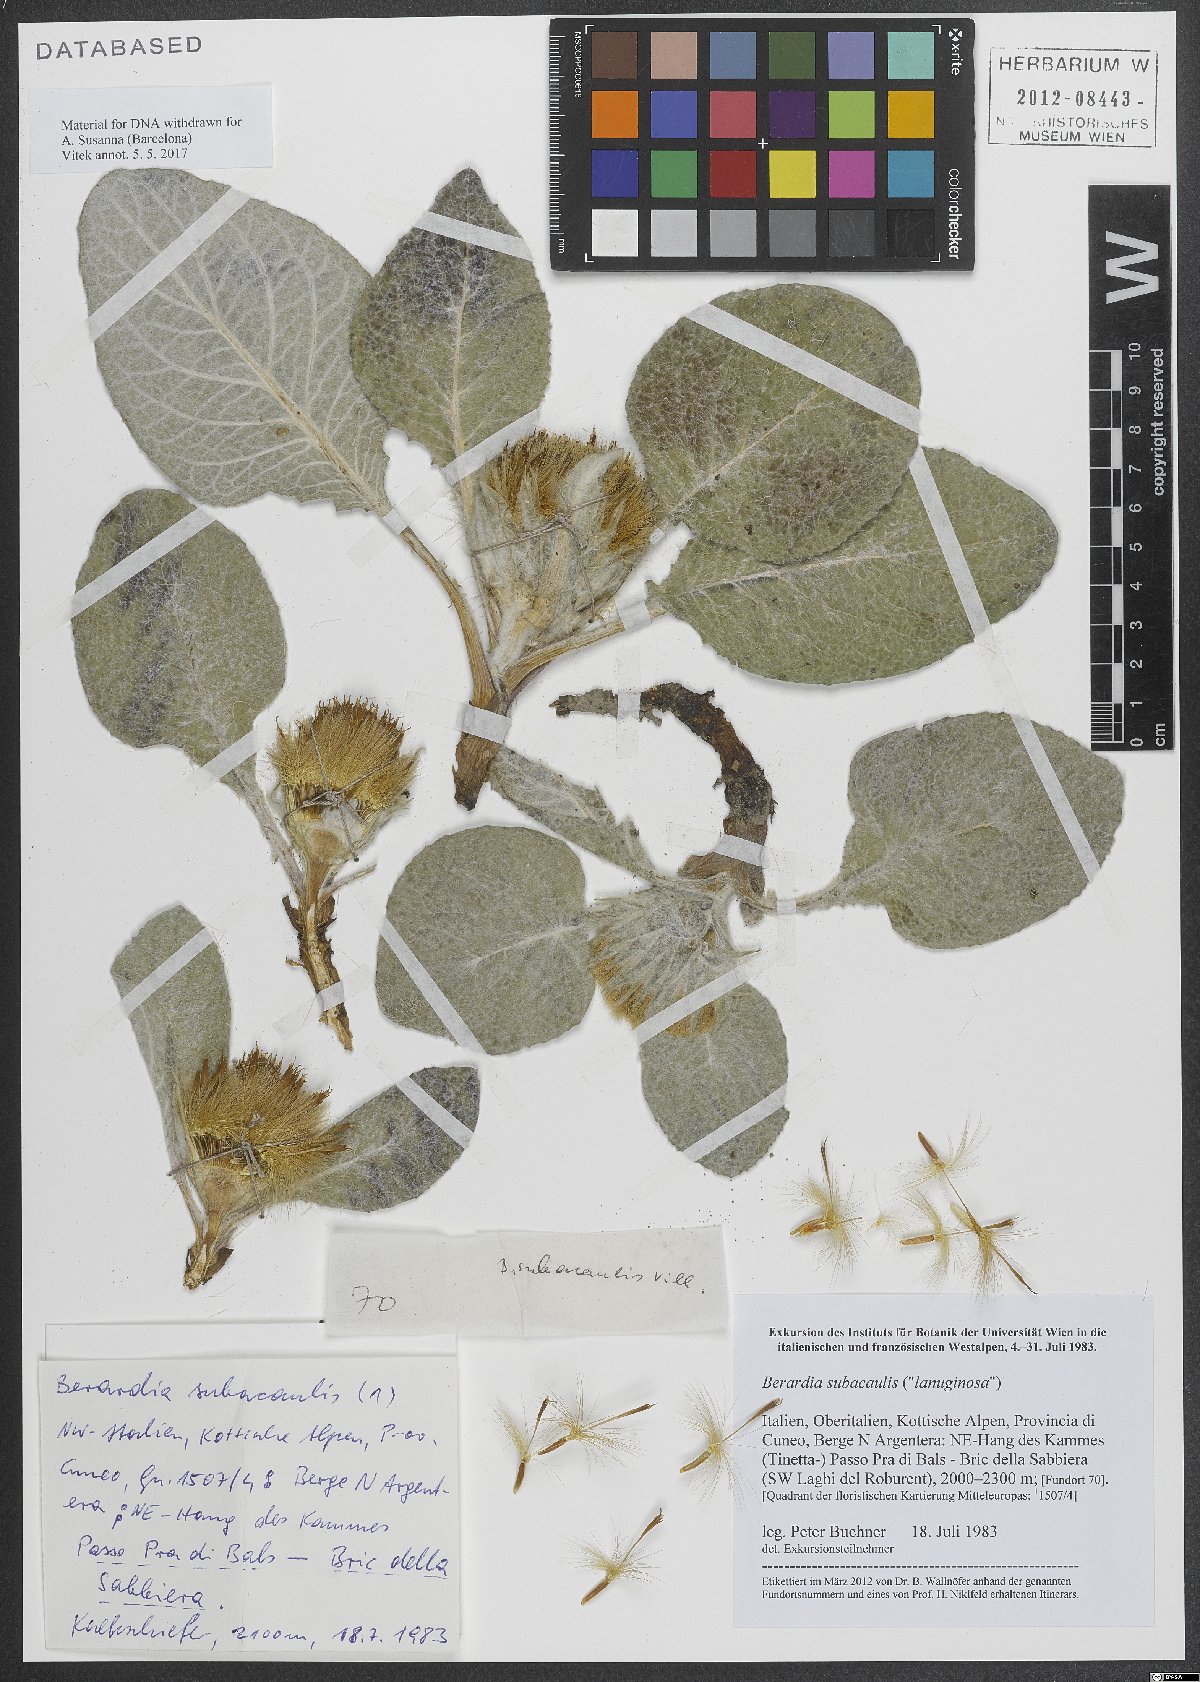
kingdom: Plantae
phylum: Tracheophyta
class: Magnoliopsida
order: Asterales
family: Asteraceae
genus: Berardia
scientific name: Berardia lanuginosa
